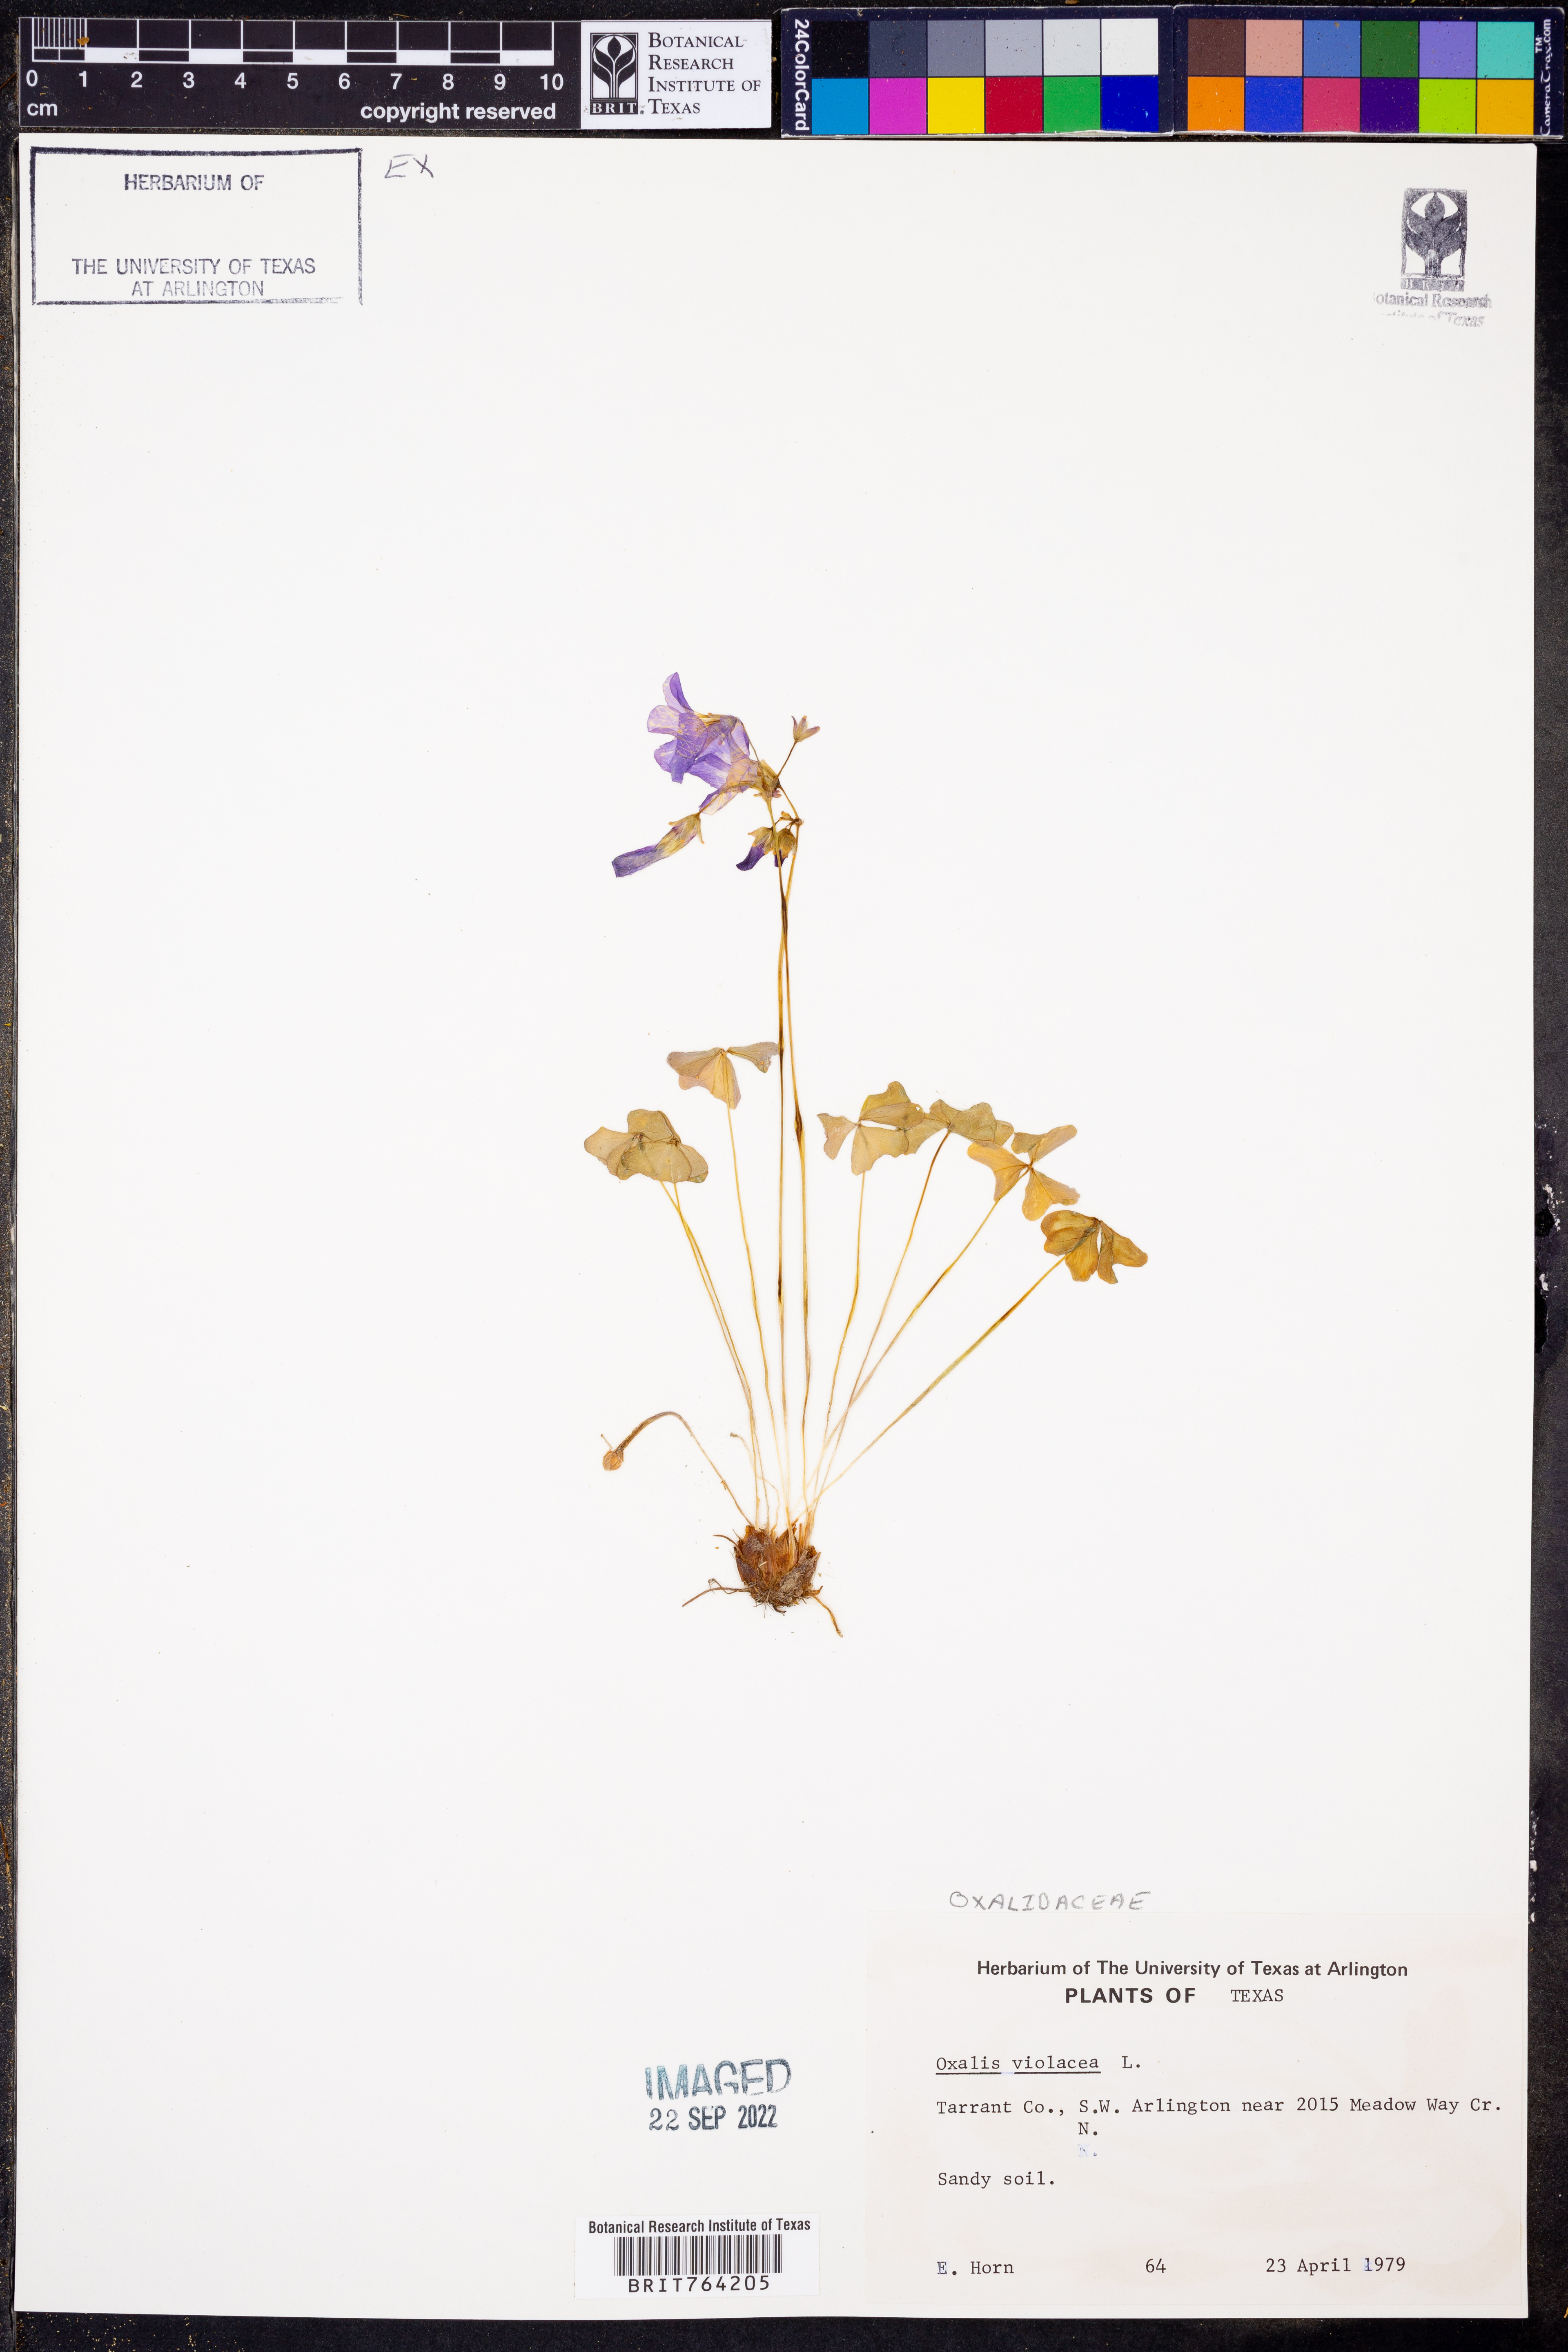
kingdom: Plantae
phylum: Tracheophyta
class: Magnoliopsida
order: Oxalidales
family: Oxalidaceae
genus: Oxalis
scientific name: Oxalis violacea
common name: Violet wood-sorrel
